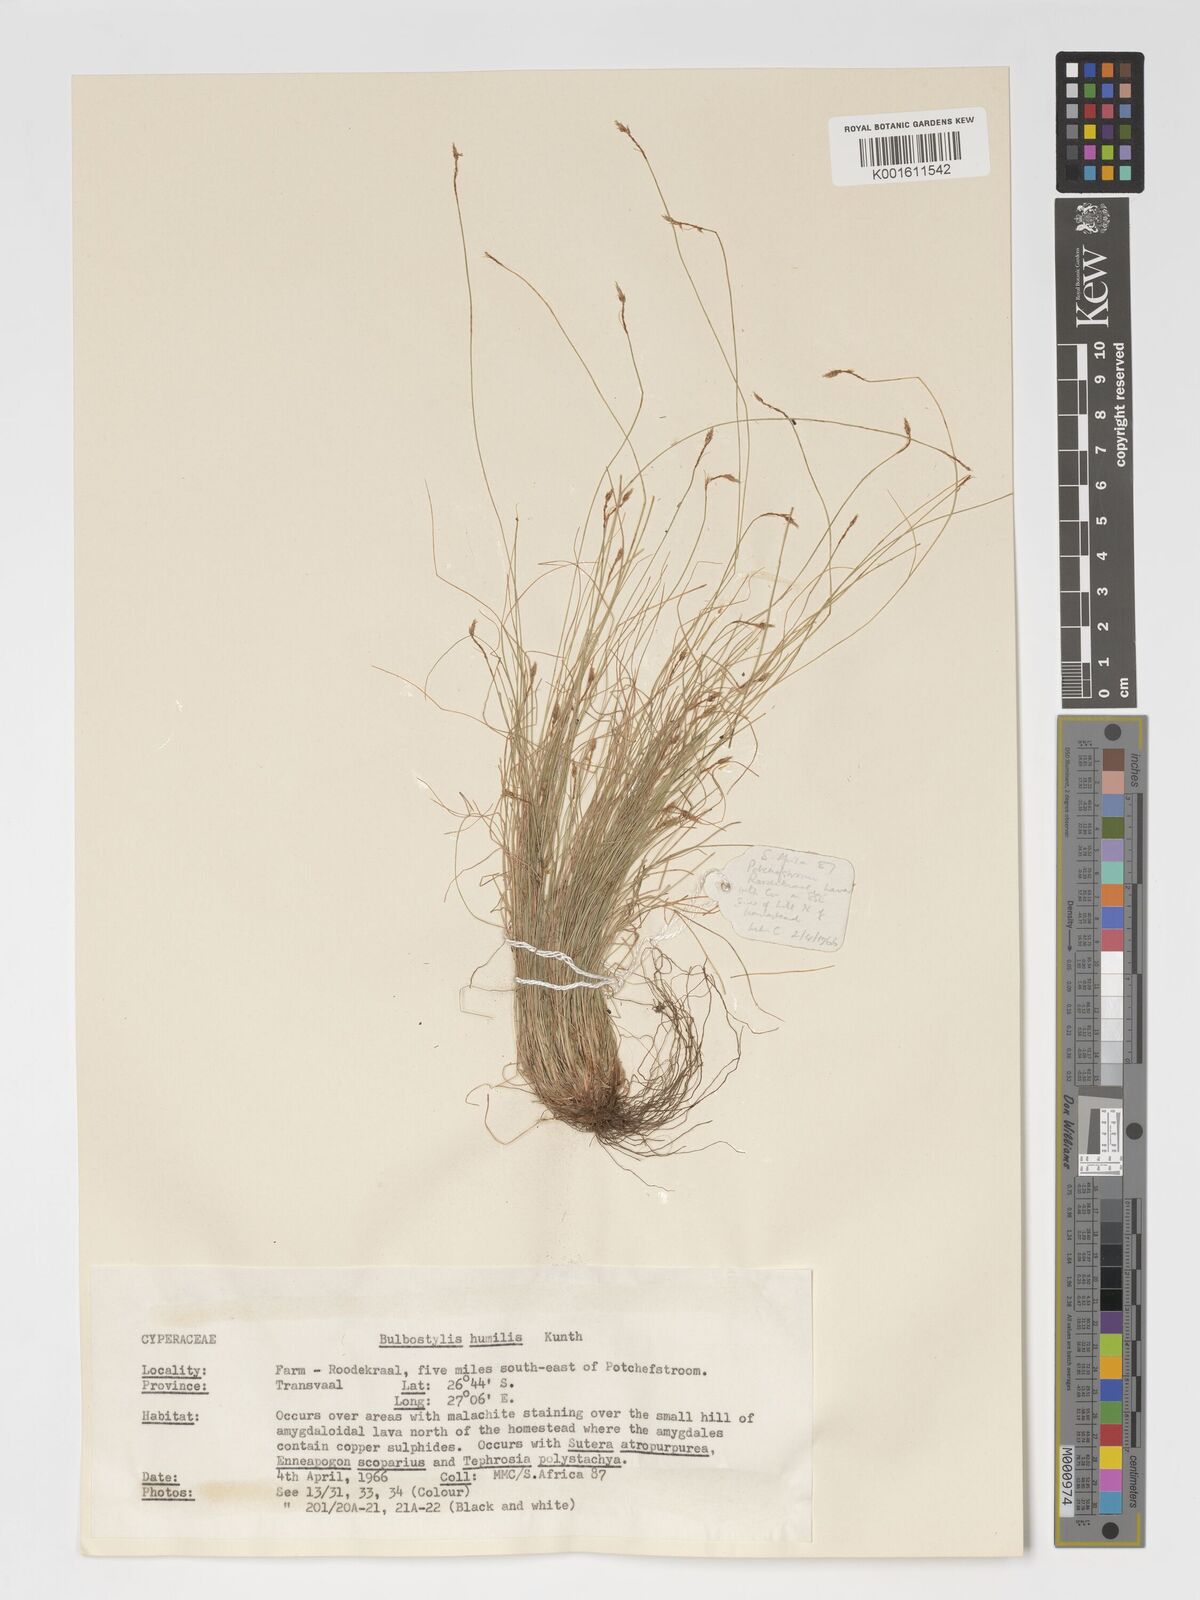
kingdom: Plantae
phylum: Tracheophyta
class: Liliopsida
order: Poales
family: Cyperaceae
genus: Bulbostylis
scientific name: Bulbostylis humilis
